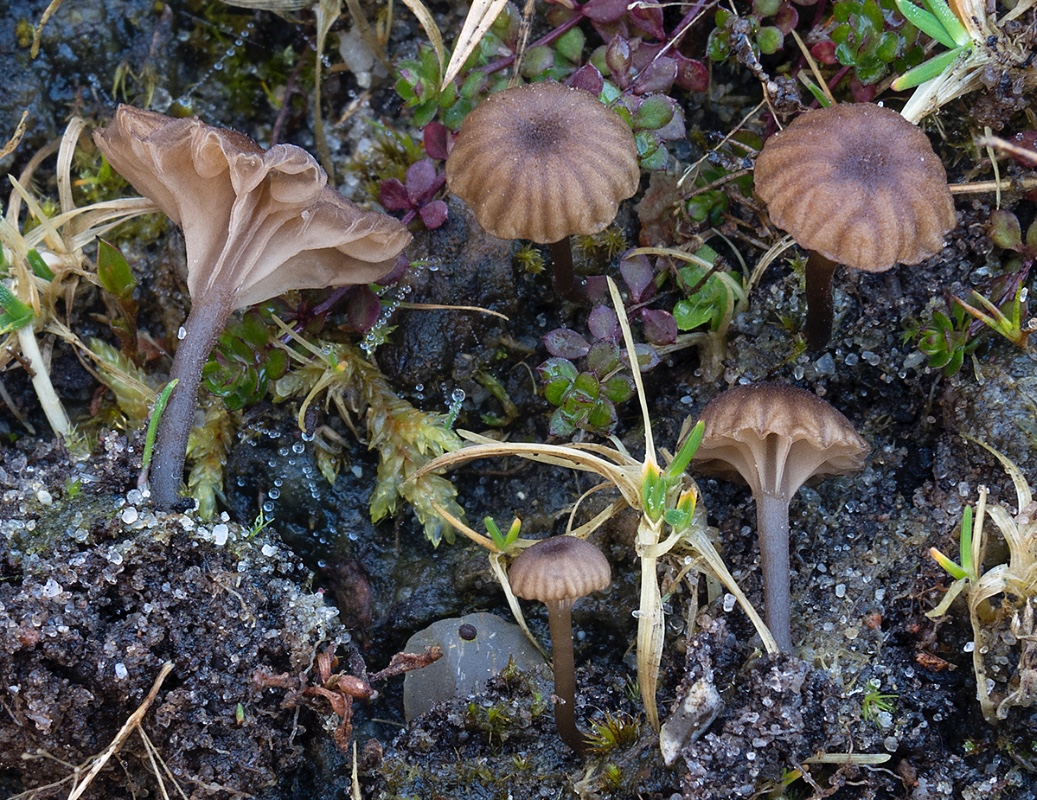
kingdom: Fungi
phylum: Basidiomycota
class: Agaricomycetes
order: Agaricales
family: Hygrophoraceae
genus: Arrhenia
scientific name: Arrhenia obscurata
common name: hede-fontænehat
